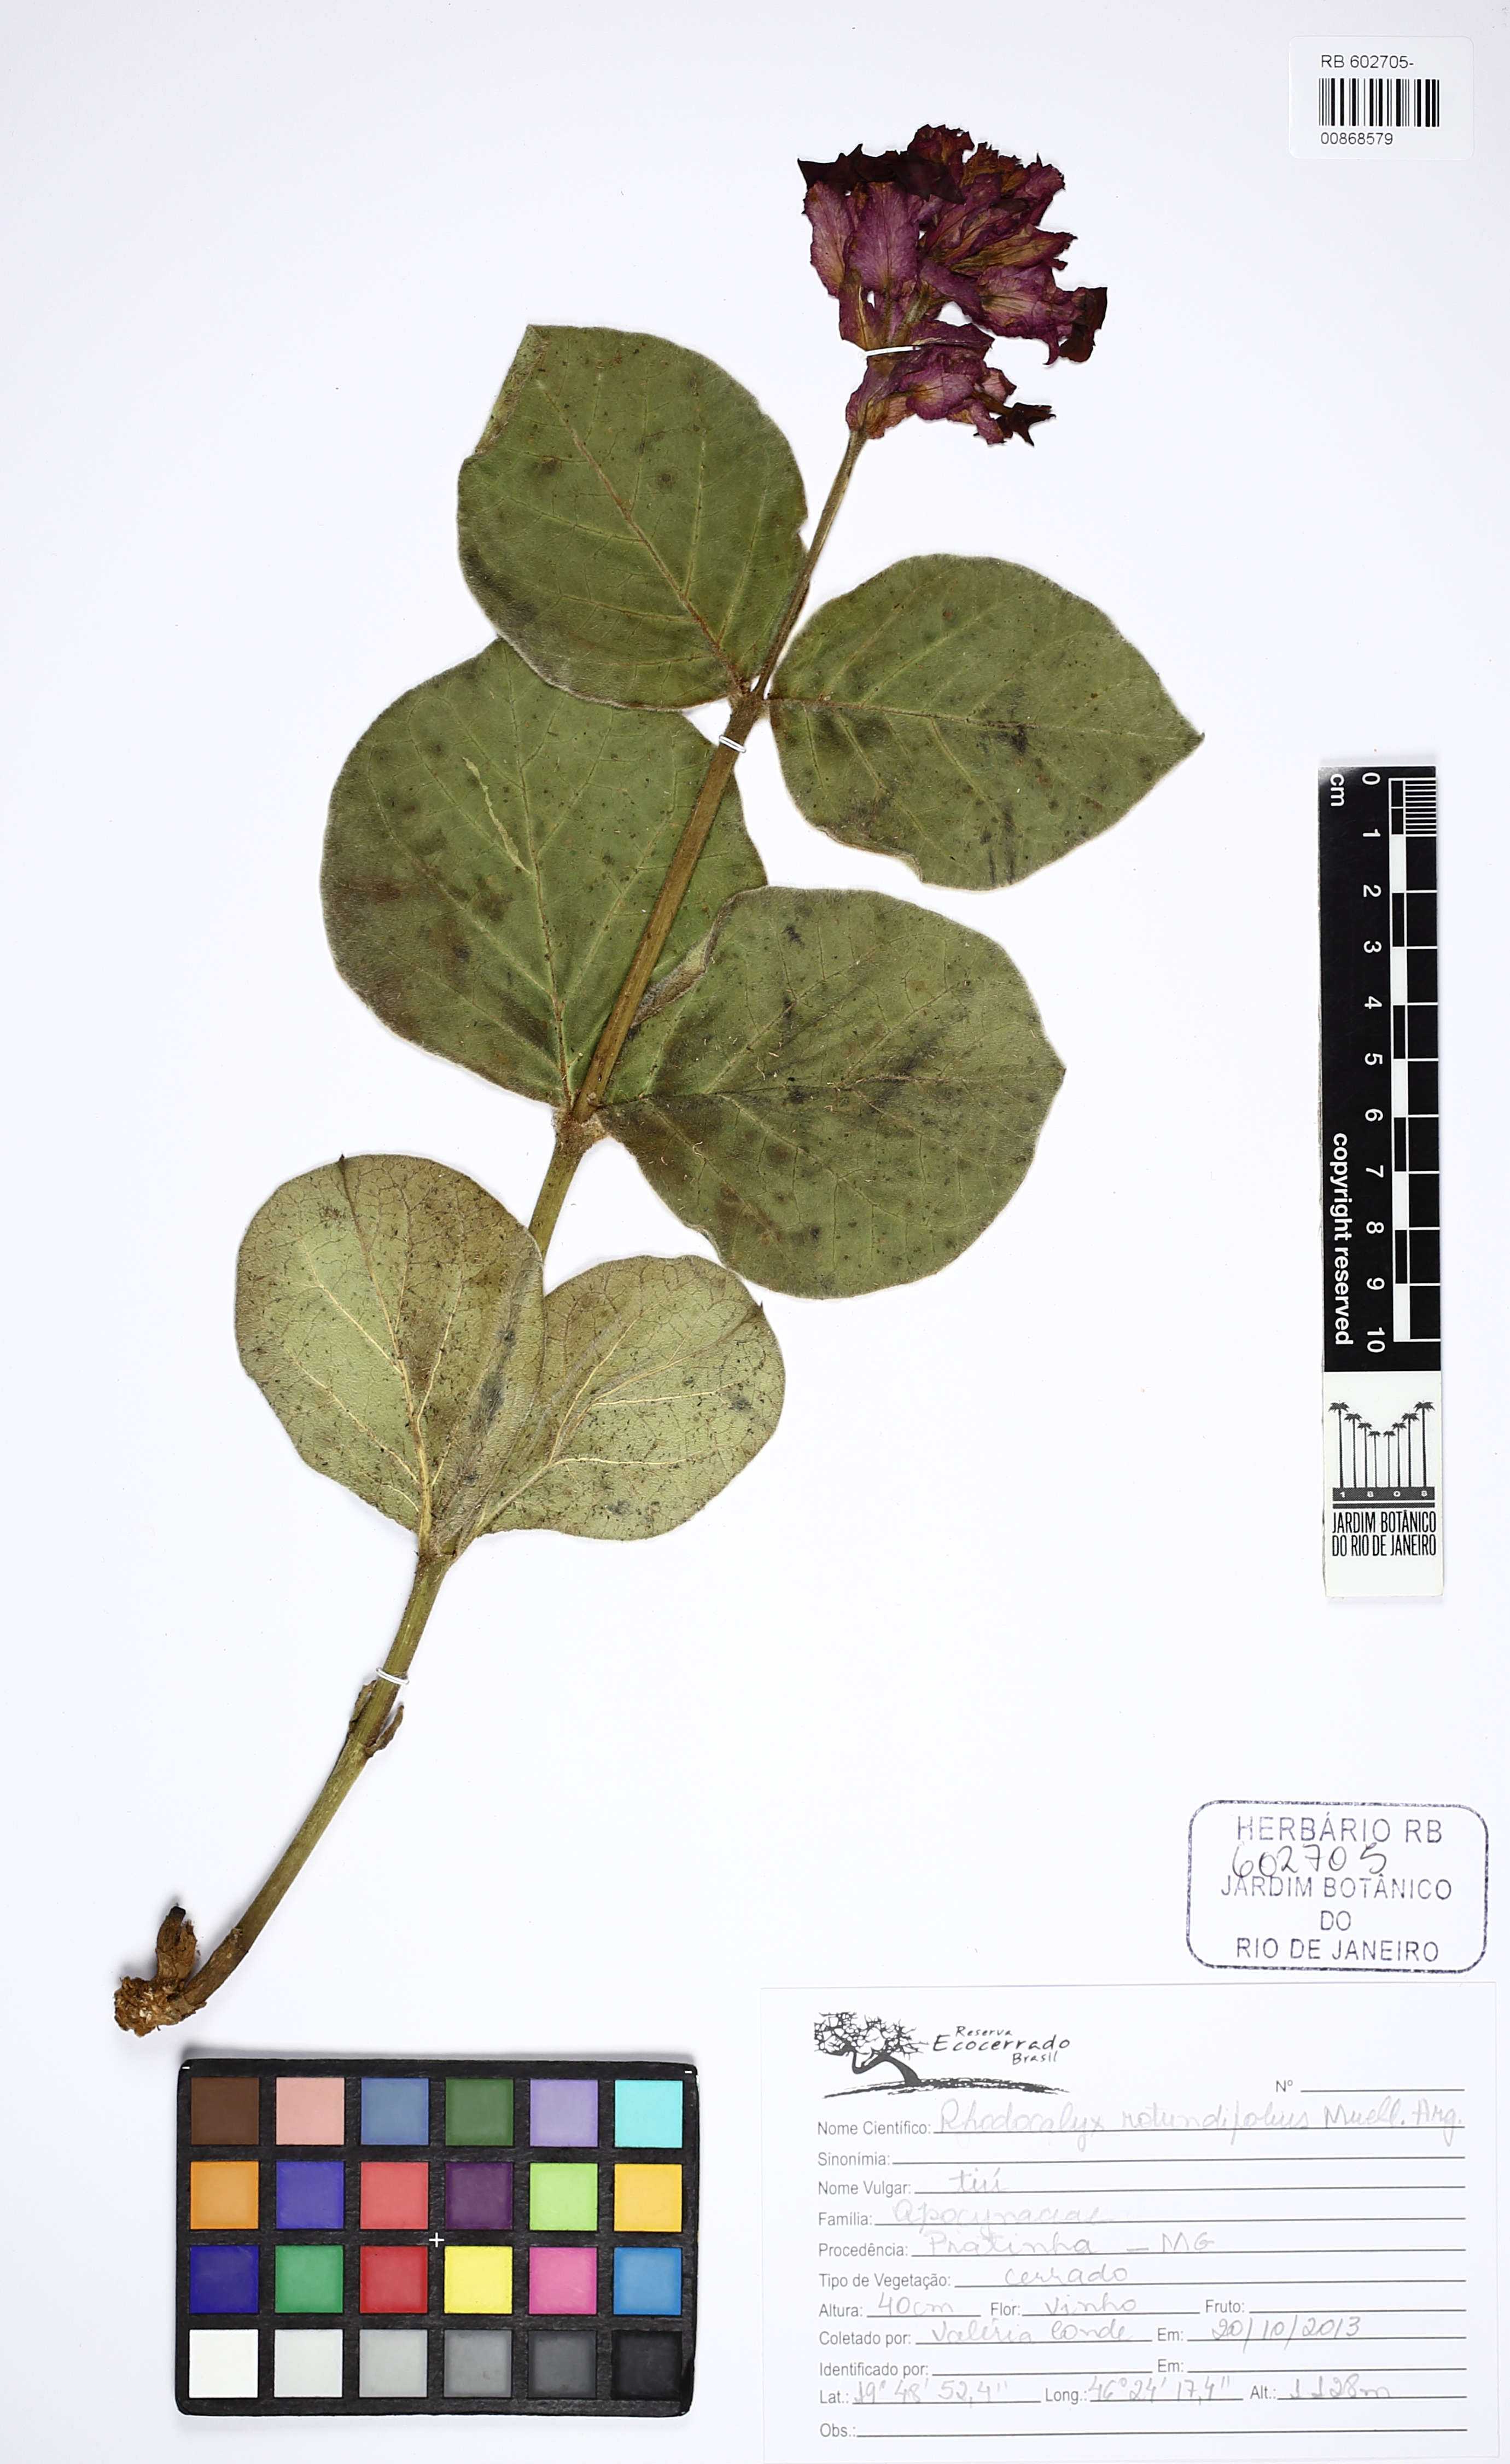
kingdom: Plantae
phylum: Tracheophyta
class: Magnoliopsida
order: Gentianales
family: Apocynaceae
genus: Prestonia
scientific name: Prestonia erecta
